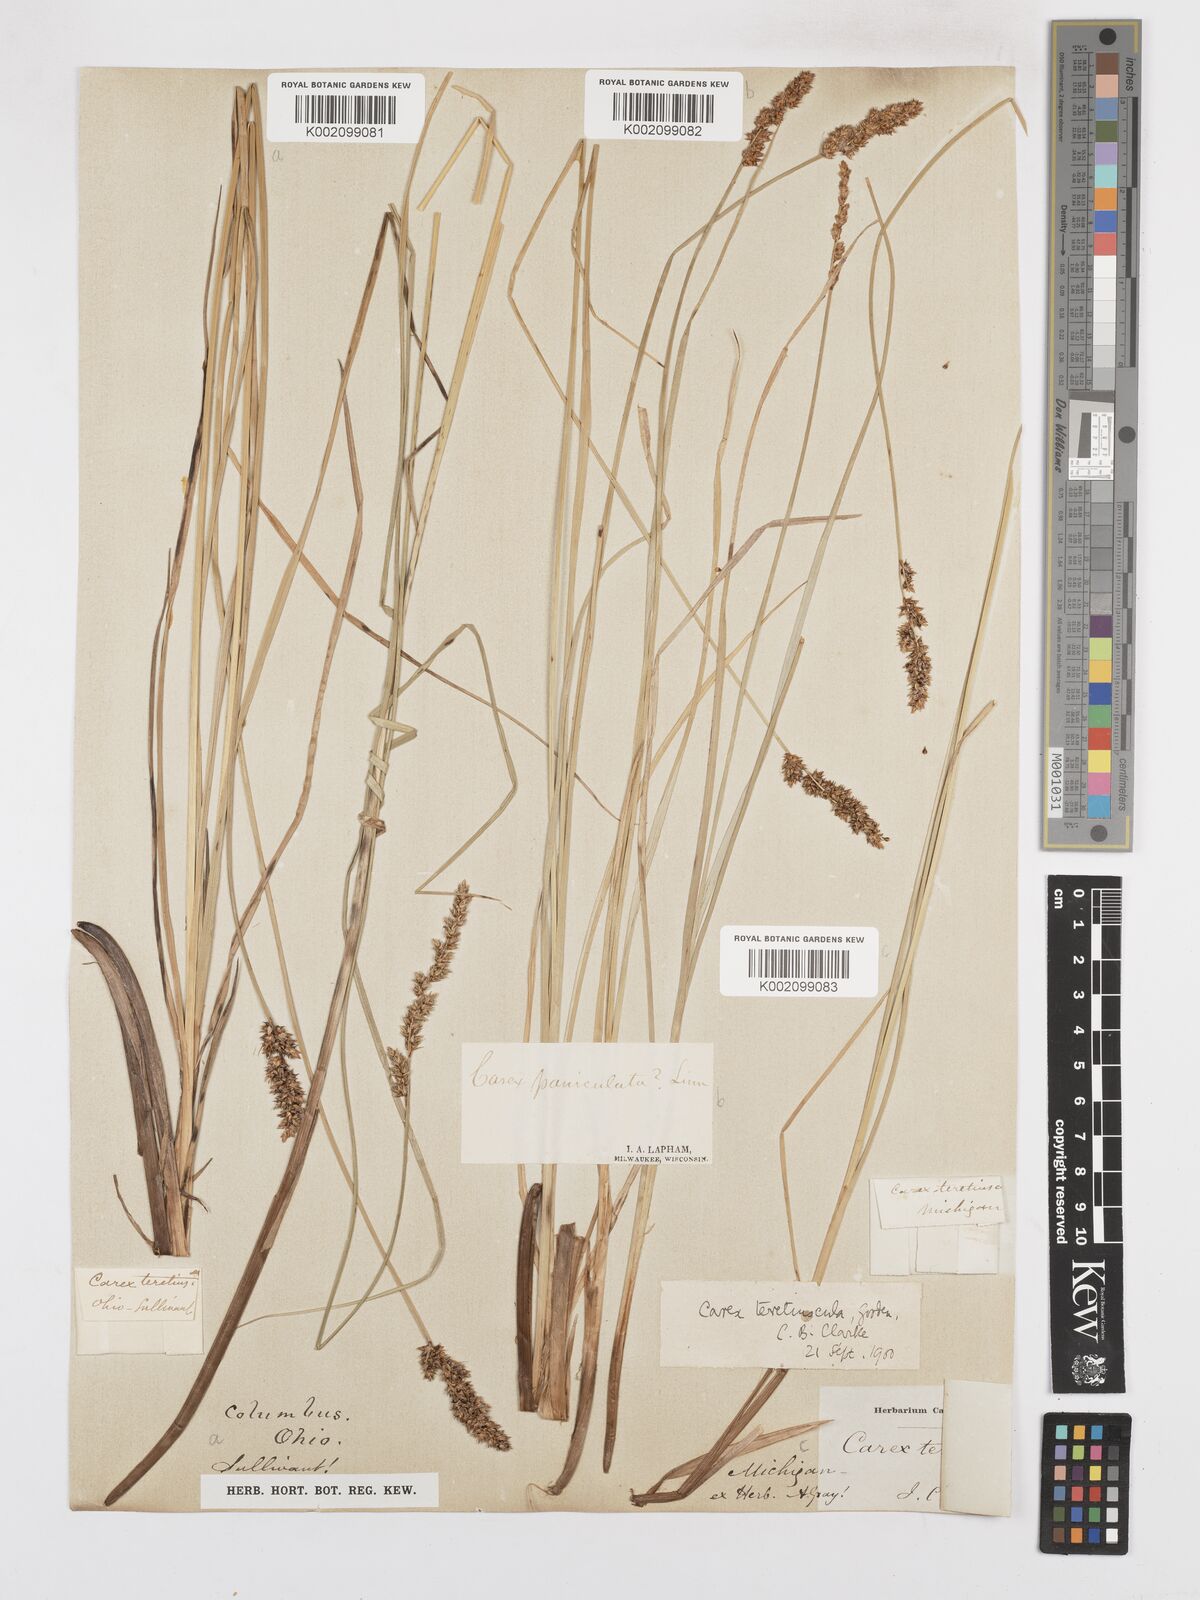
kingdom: Plantae
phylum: Tracheophyta
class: Liliopsida
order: Poales
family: Cyperaceae
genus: Carex
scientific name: Carex prairea
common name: Prairie sedge
